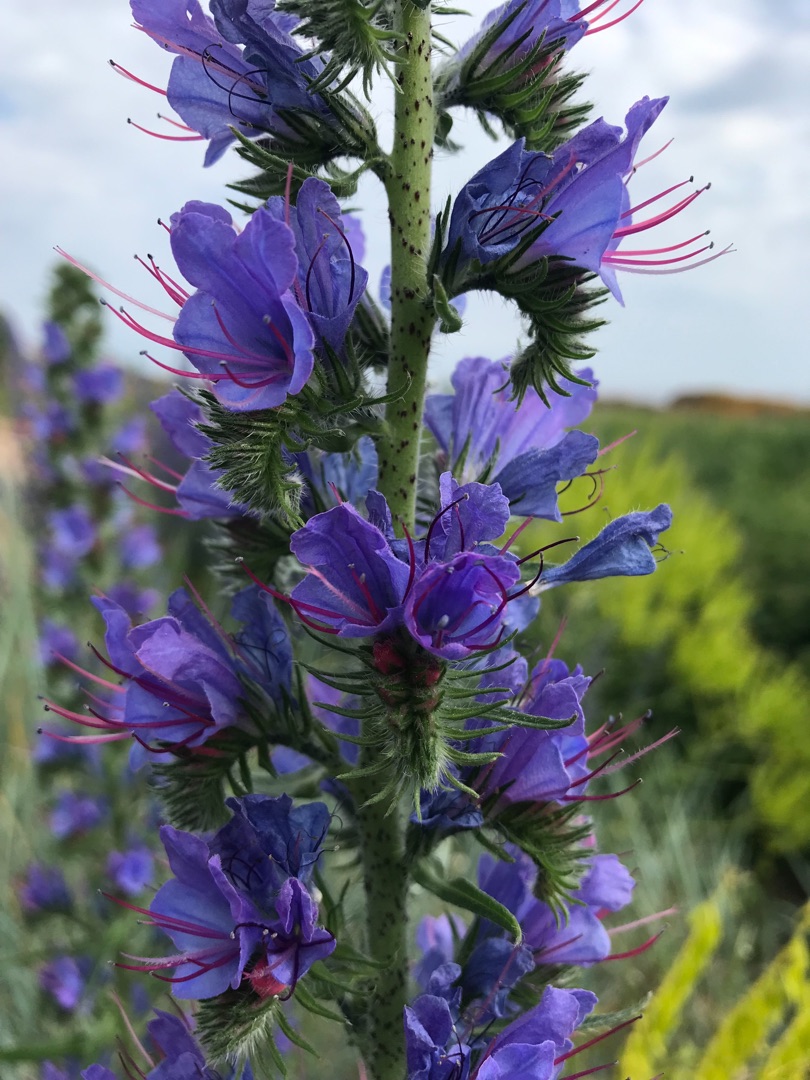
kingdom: Plantae
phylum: Tracheophyta
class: Magnoliopsida
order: Boraginales
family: Boraginaceae
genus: Echium
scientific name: Echium vulgare
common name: Slangehoved
